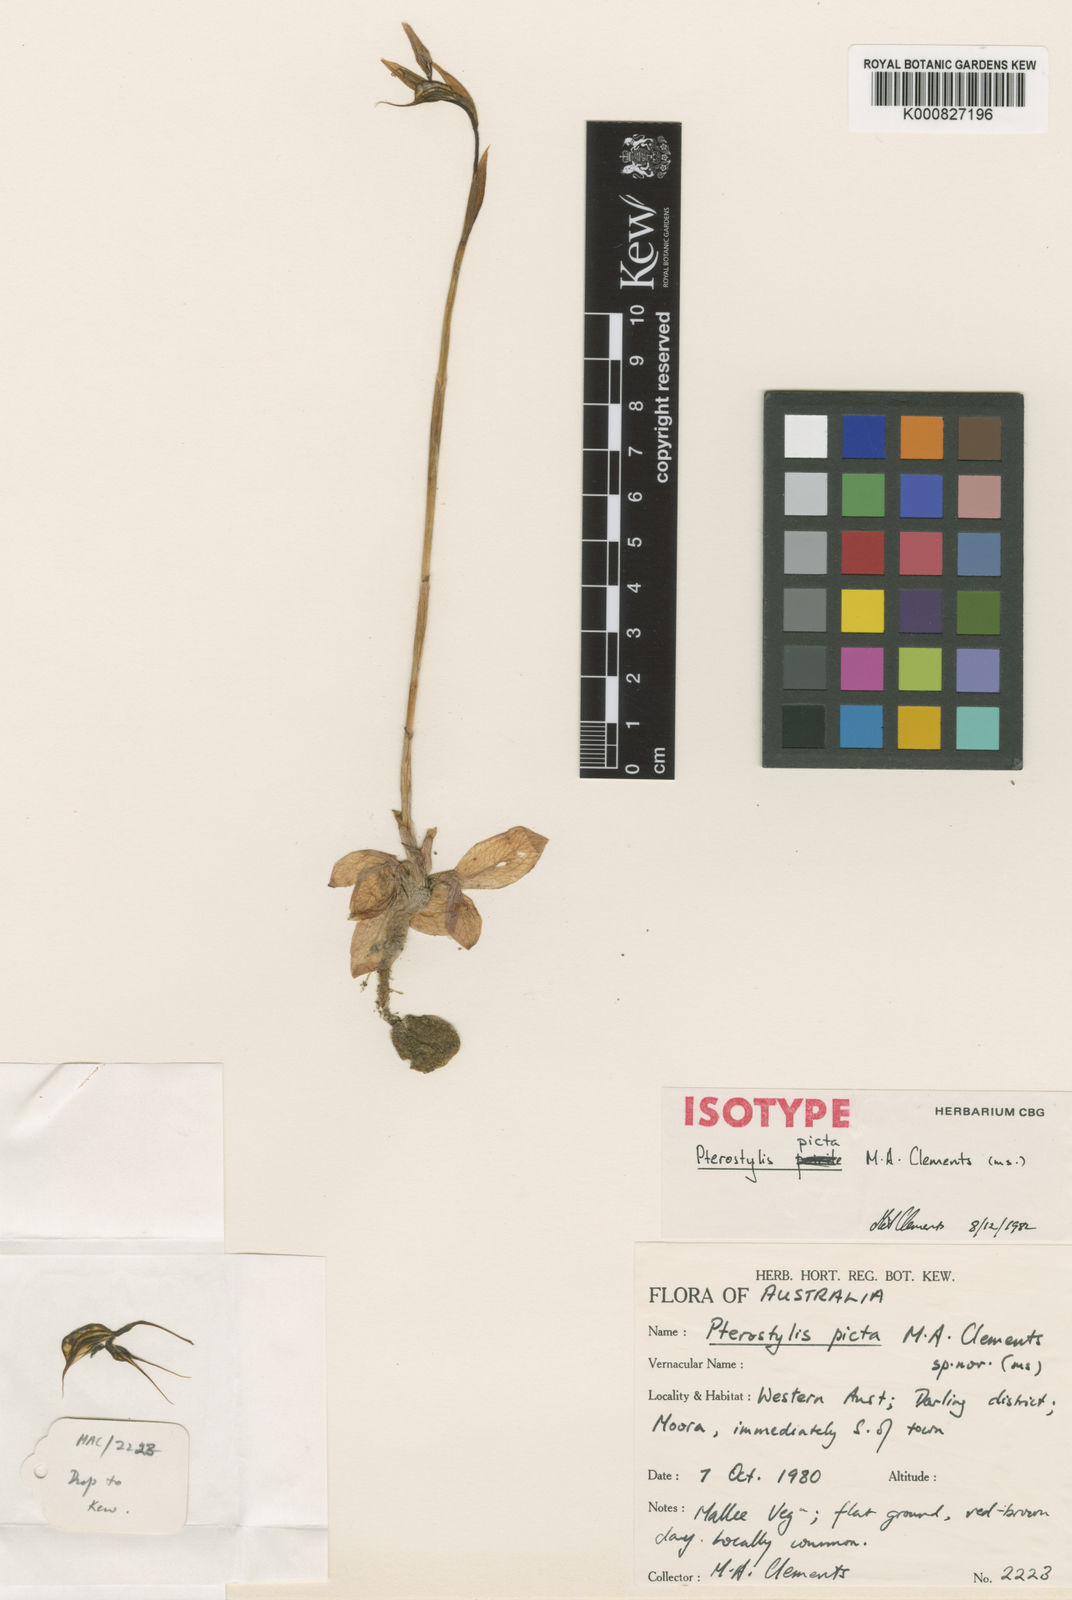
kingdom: Plantae
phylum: Tracheophyta
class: Liliopsida
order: Asparagales
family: Orchidaceae
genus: Pterostylis
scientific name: Pterostylis picta
